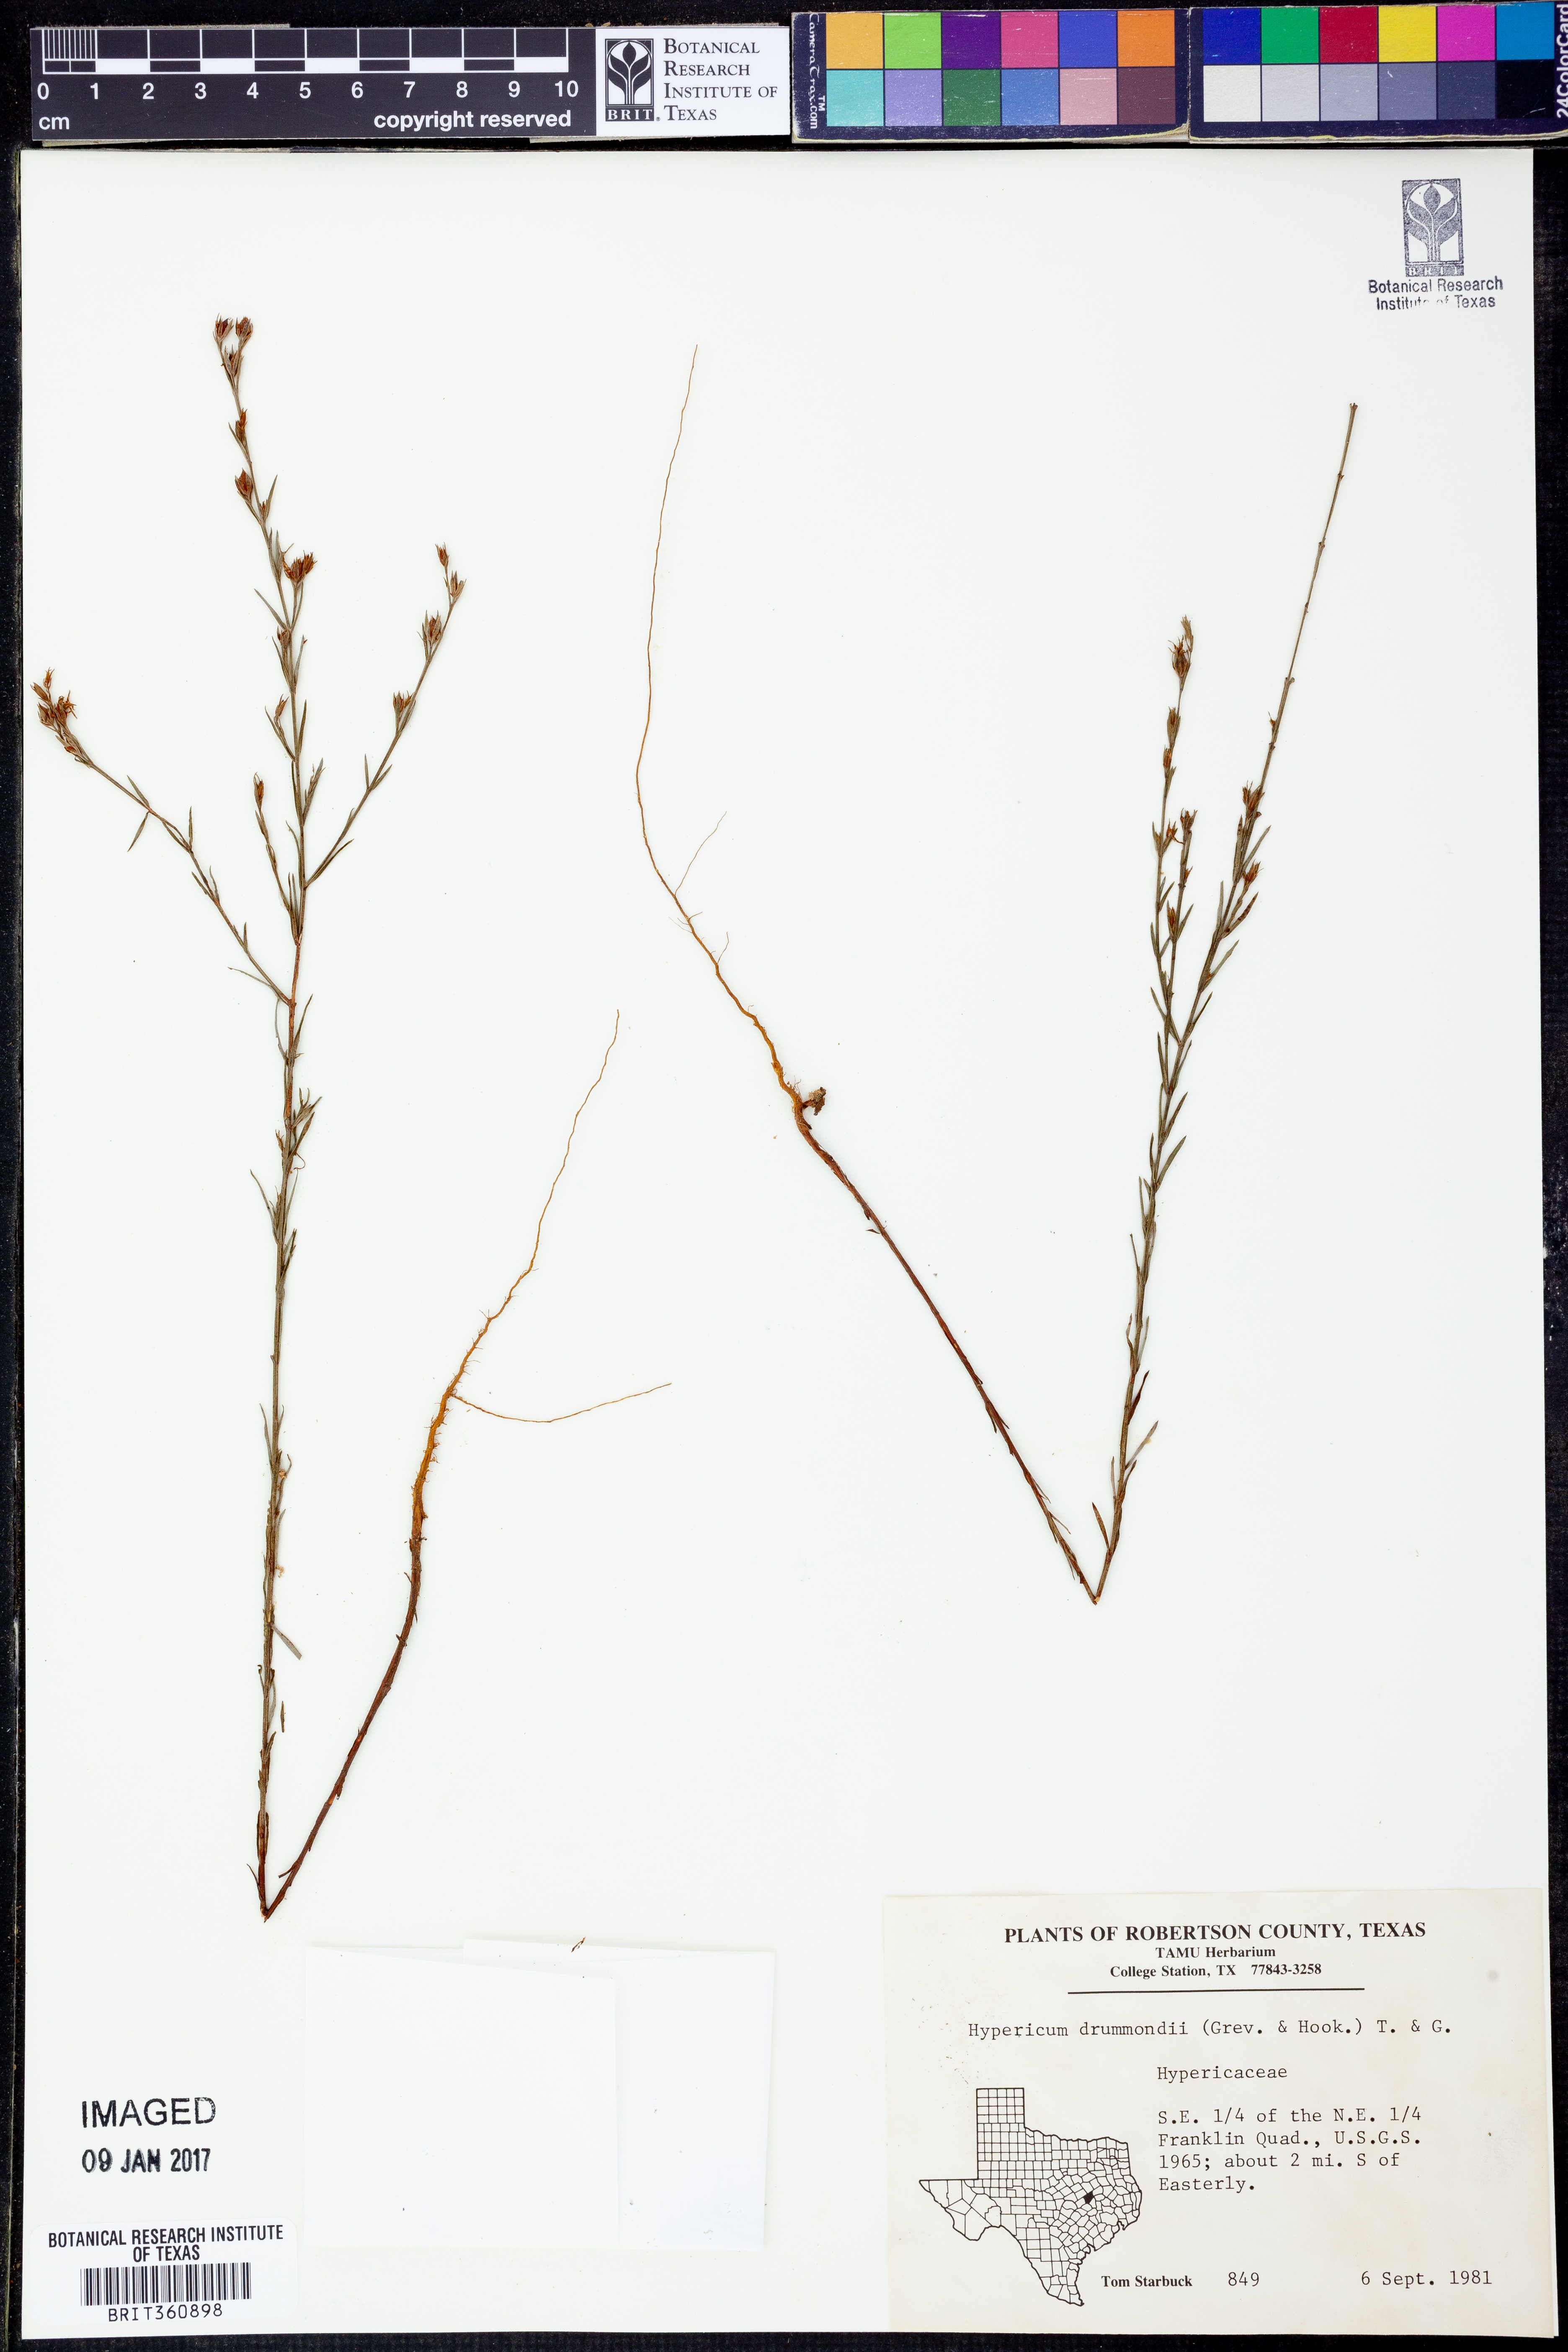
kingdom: Plantae
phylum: Tracheophyta
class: Magnoliopsida
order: Malpighiales
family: Hypericaceae
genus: Hypericum
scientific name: Hypericum drummondii
